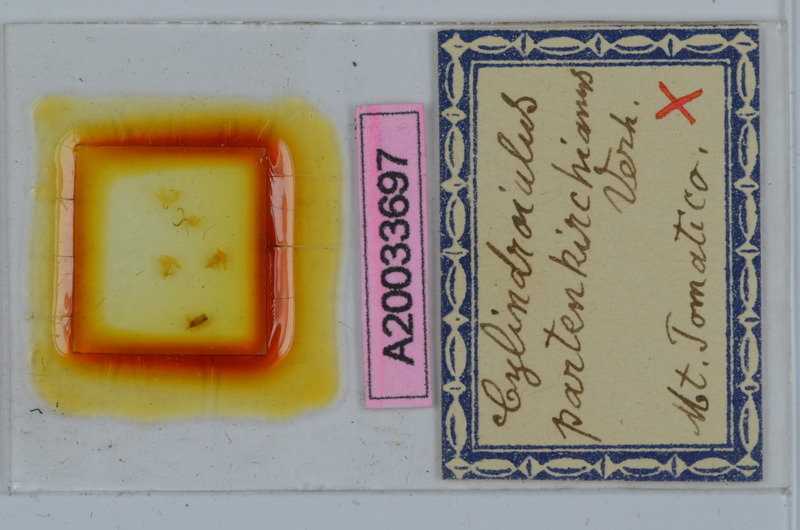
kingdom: Animalia
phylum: Arthropoda
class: Diplopoda
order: Julida
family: Julidae
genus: Cylindroiulus
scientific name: Cylindroiulus fulviceps
